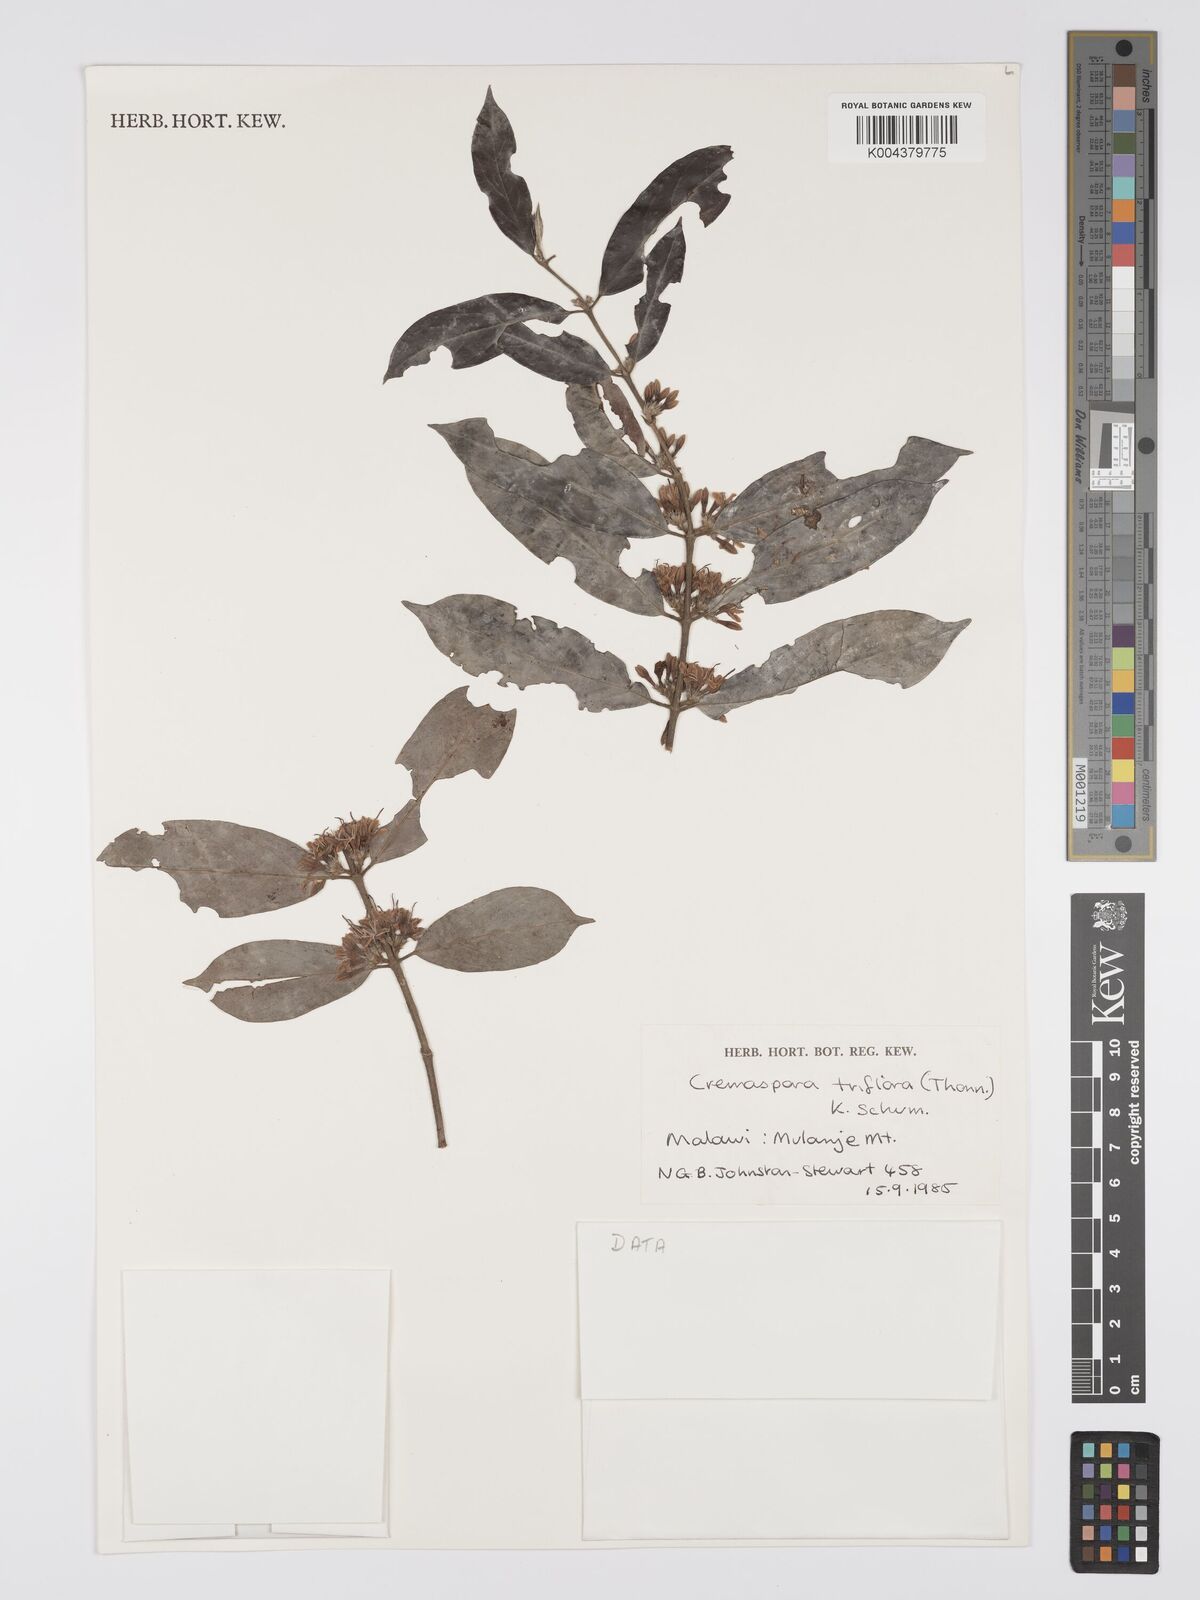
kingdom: Plantae
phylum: Tracheophyta
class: Magnoliopsida
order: Gentianales
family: Rubiaceae
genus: Cremaspora
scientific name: Cremaspora triflora
